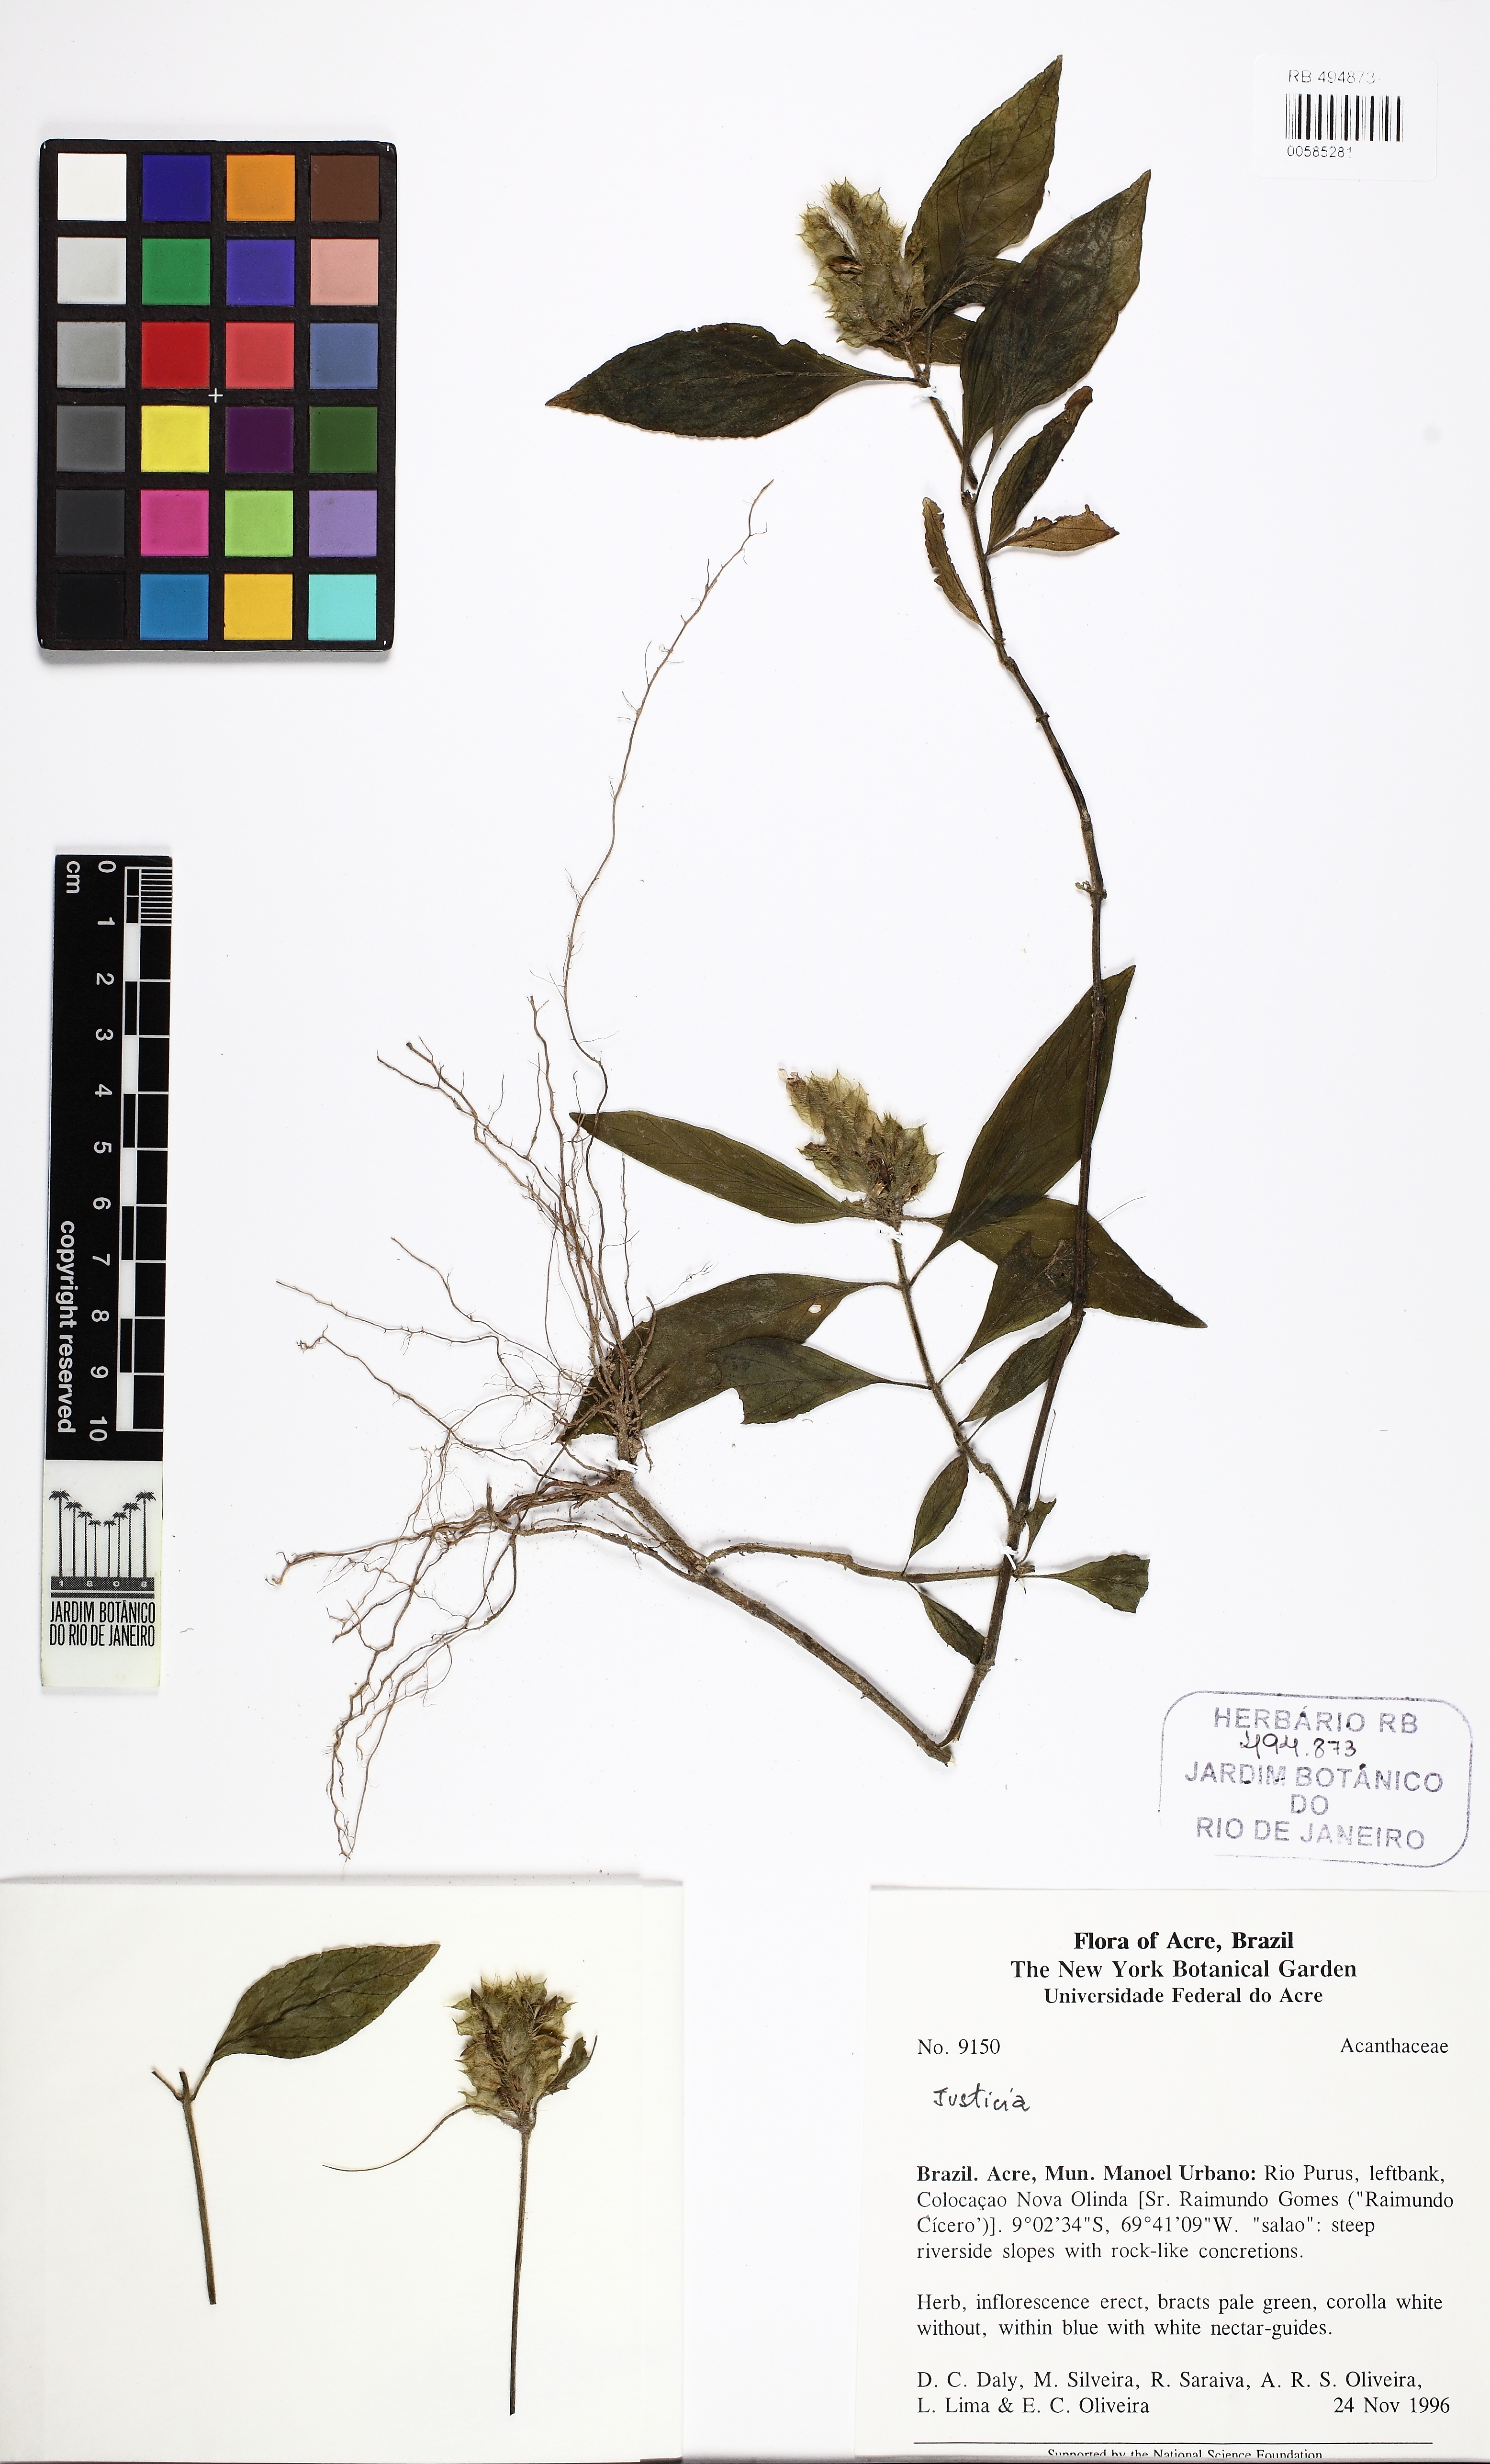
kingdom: Plantae
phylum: Tracheophyta
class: Magnoliopsida
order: Lamiales
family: Acanthaceae
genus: Justicia
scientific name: Justicia pilosa
